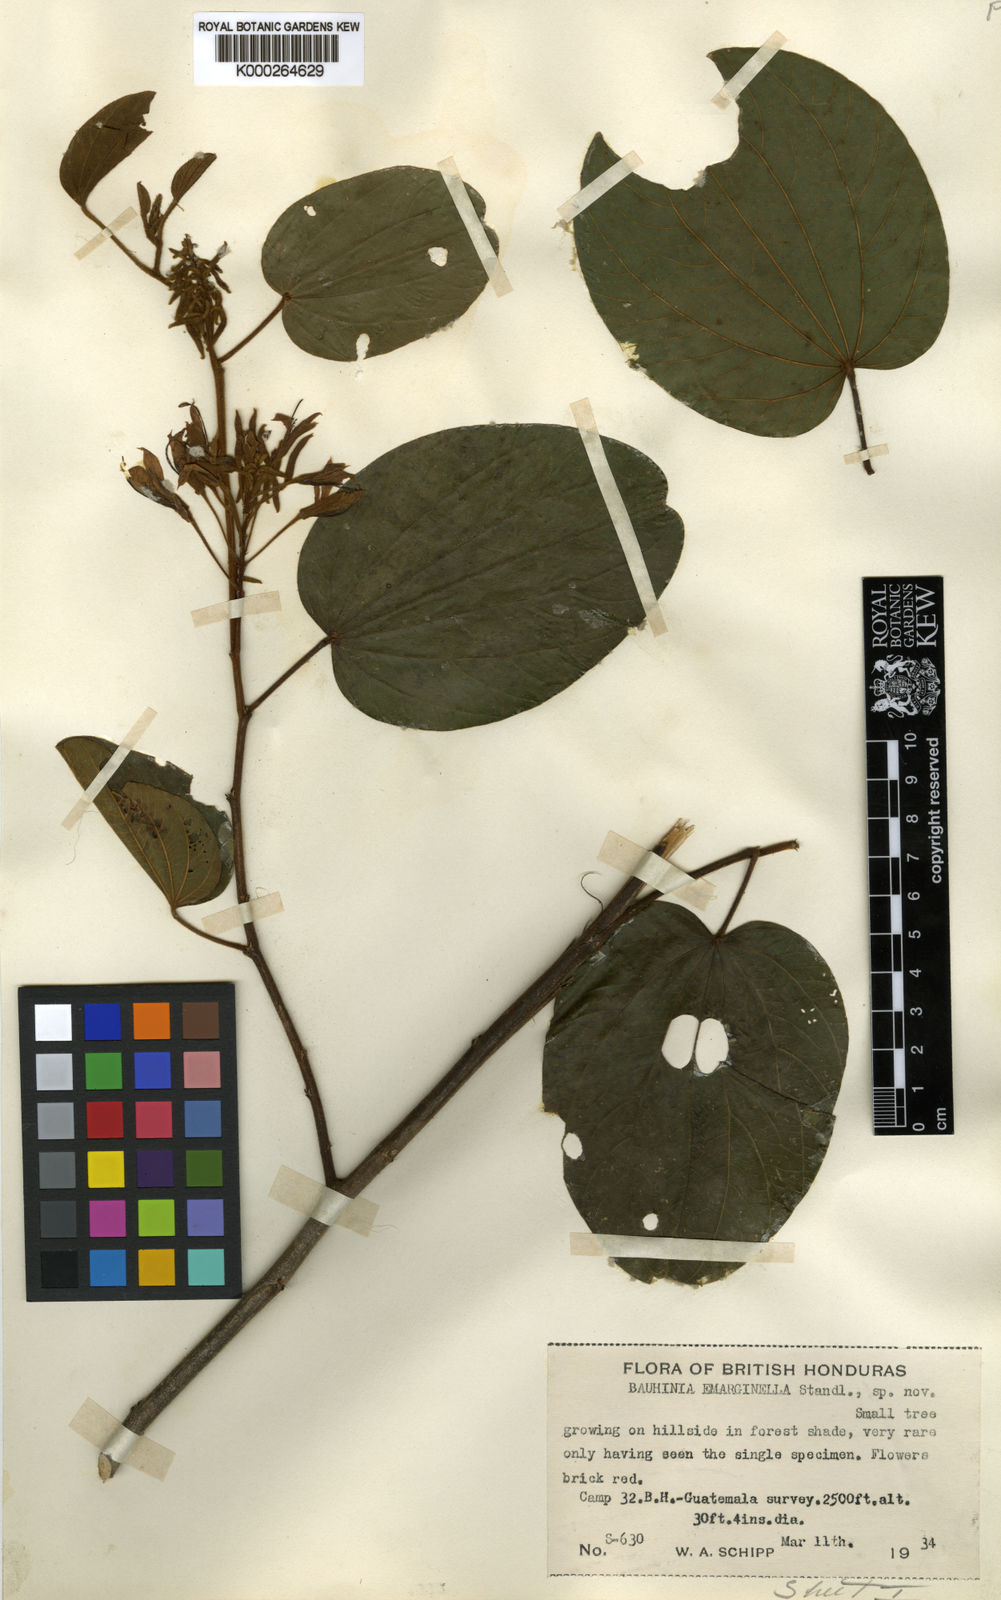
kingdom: Plantae
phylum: Tracheophyta
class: Magnoliopsida
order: Fabales
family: Fabaceae
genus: Bauhinia
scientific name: Bauhinia rubeleruziana
